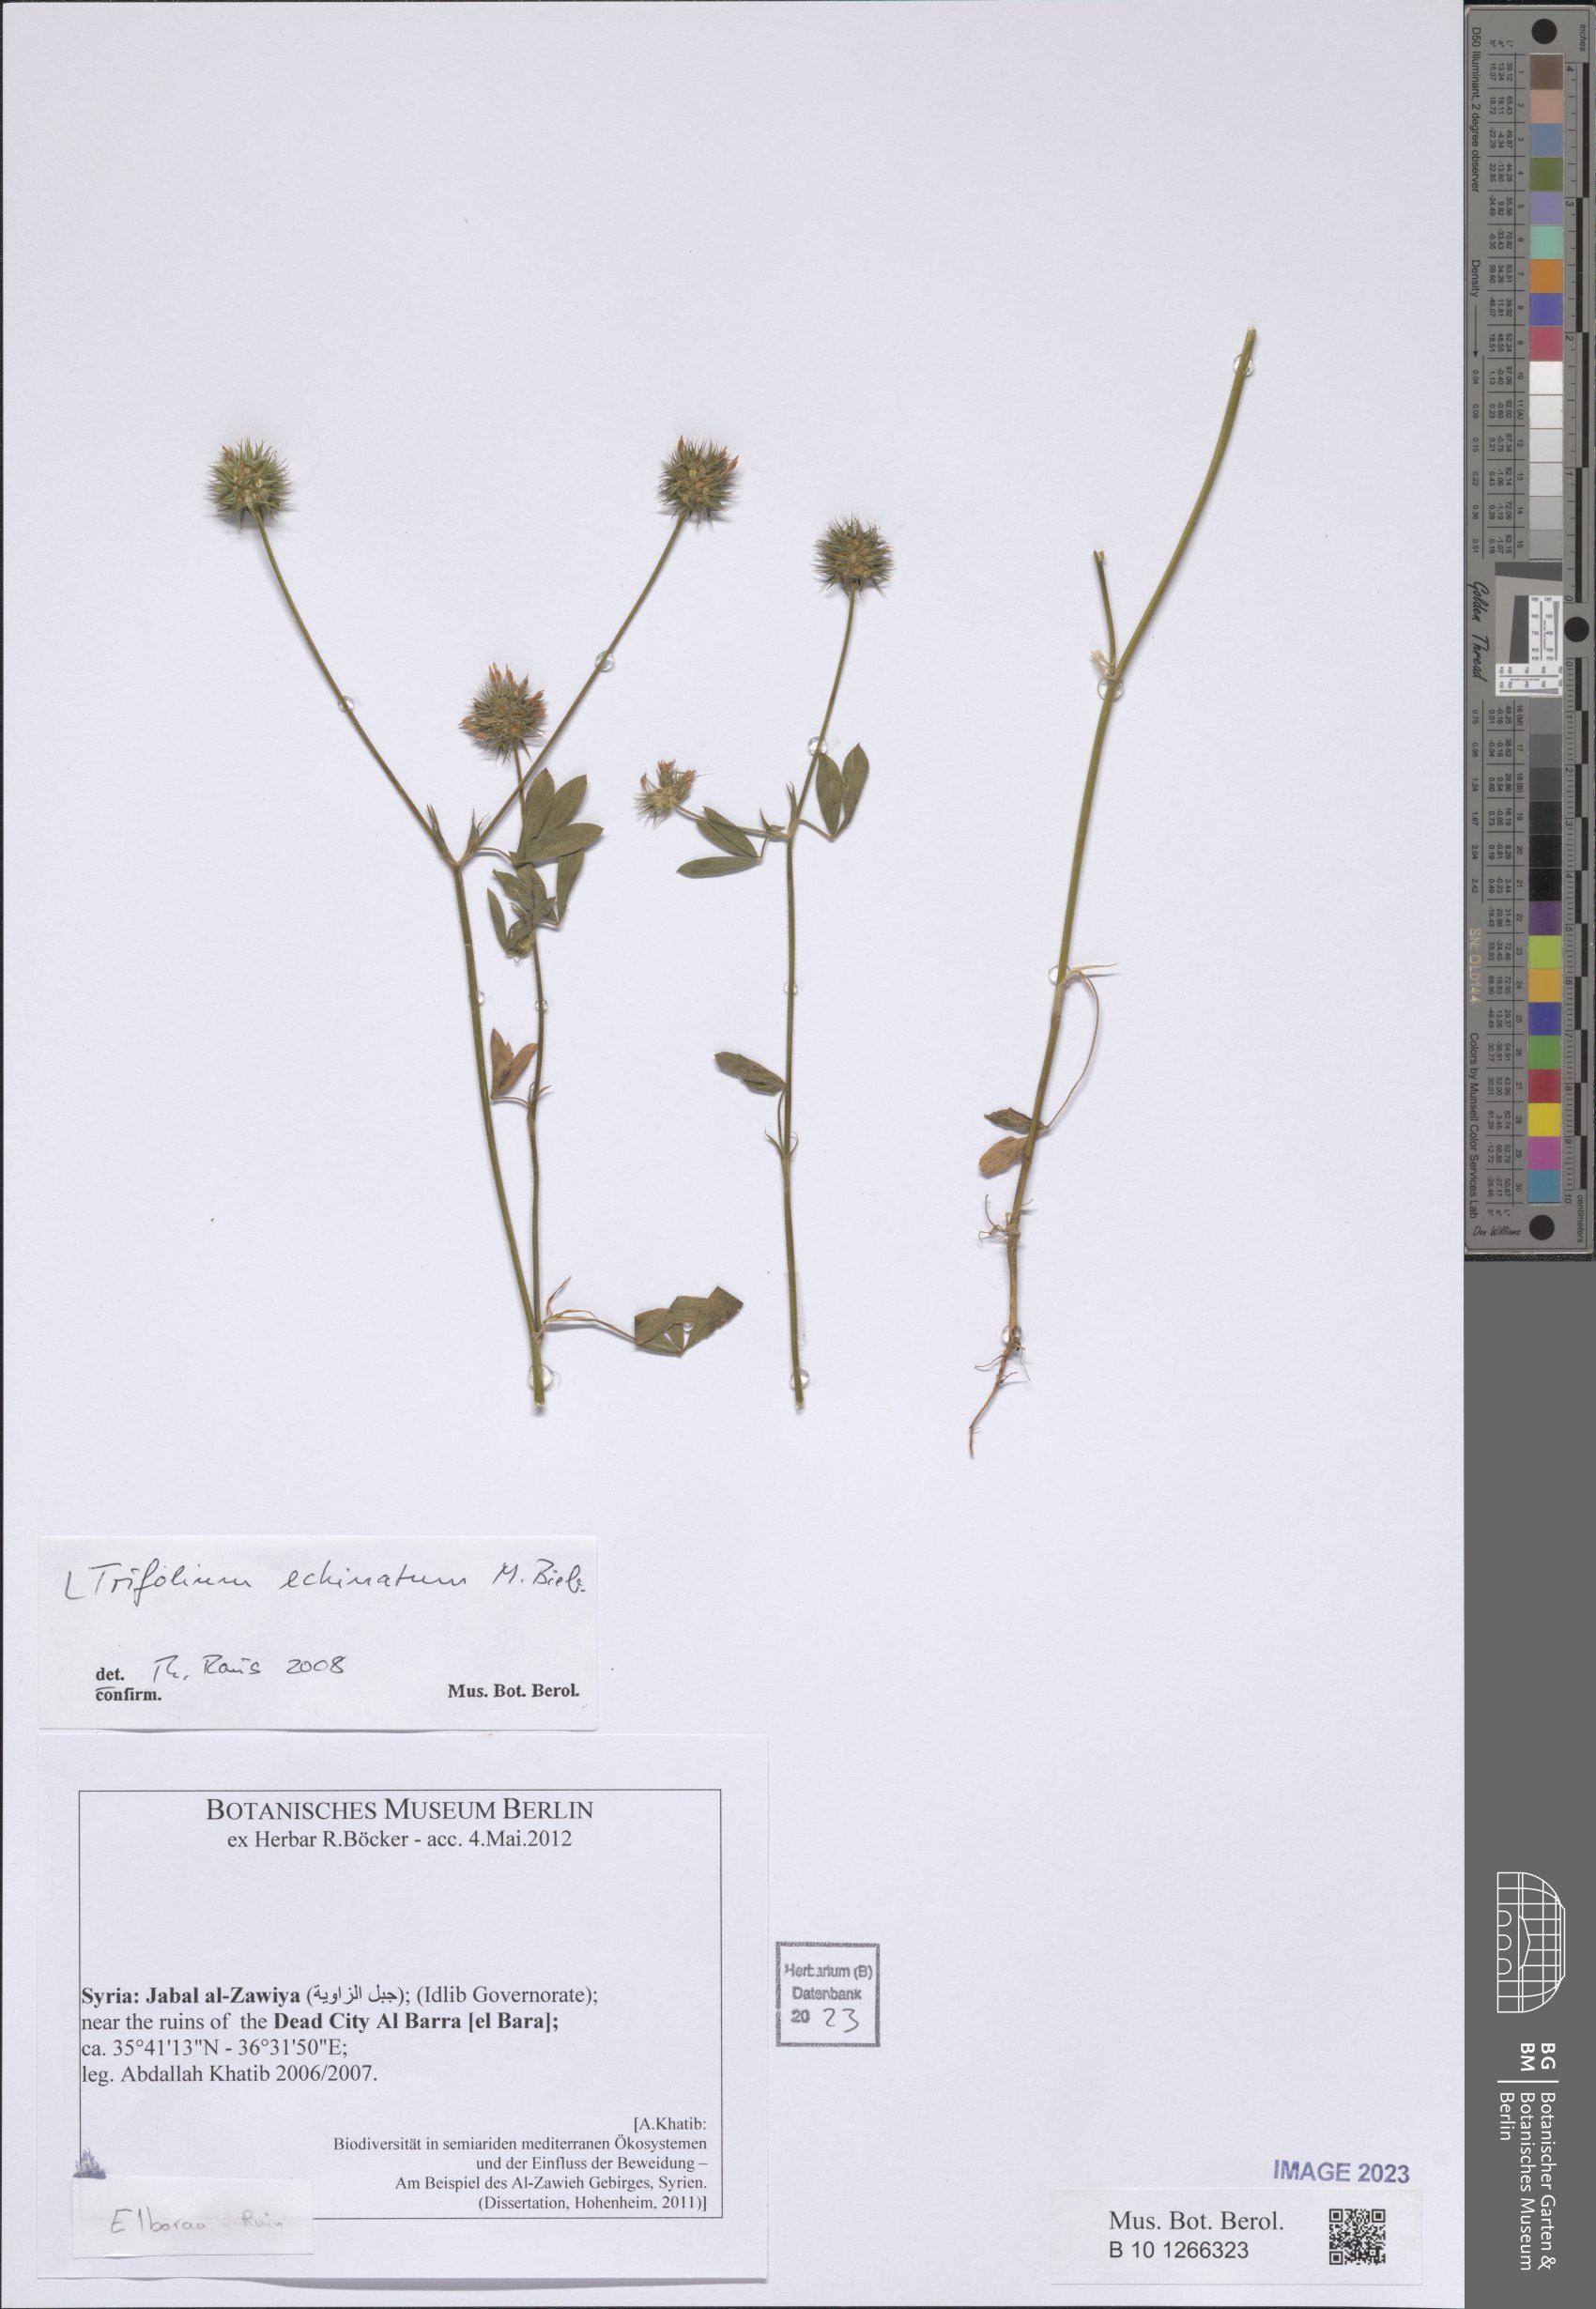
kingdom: Plantae
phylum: Tracheophyta
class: Magnoliopsida
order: Fabales
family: Fabaceae
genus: Trifolium
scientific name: Trifolium echinatum
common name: Hedgehog clover
